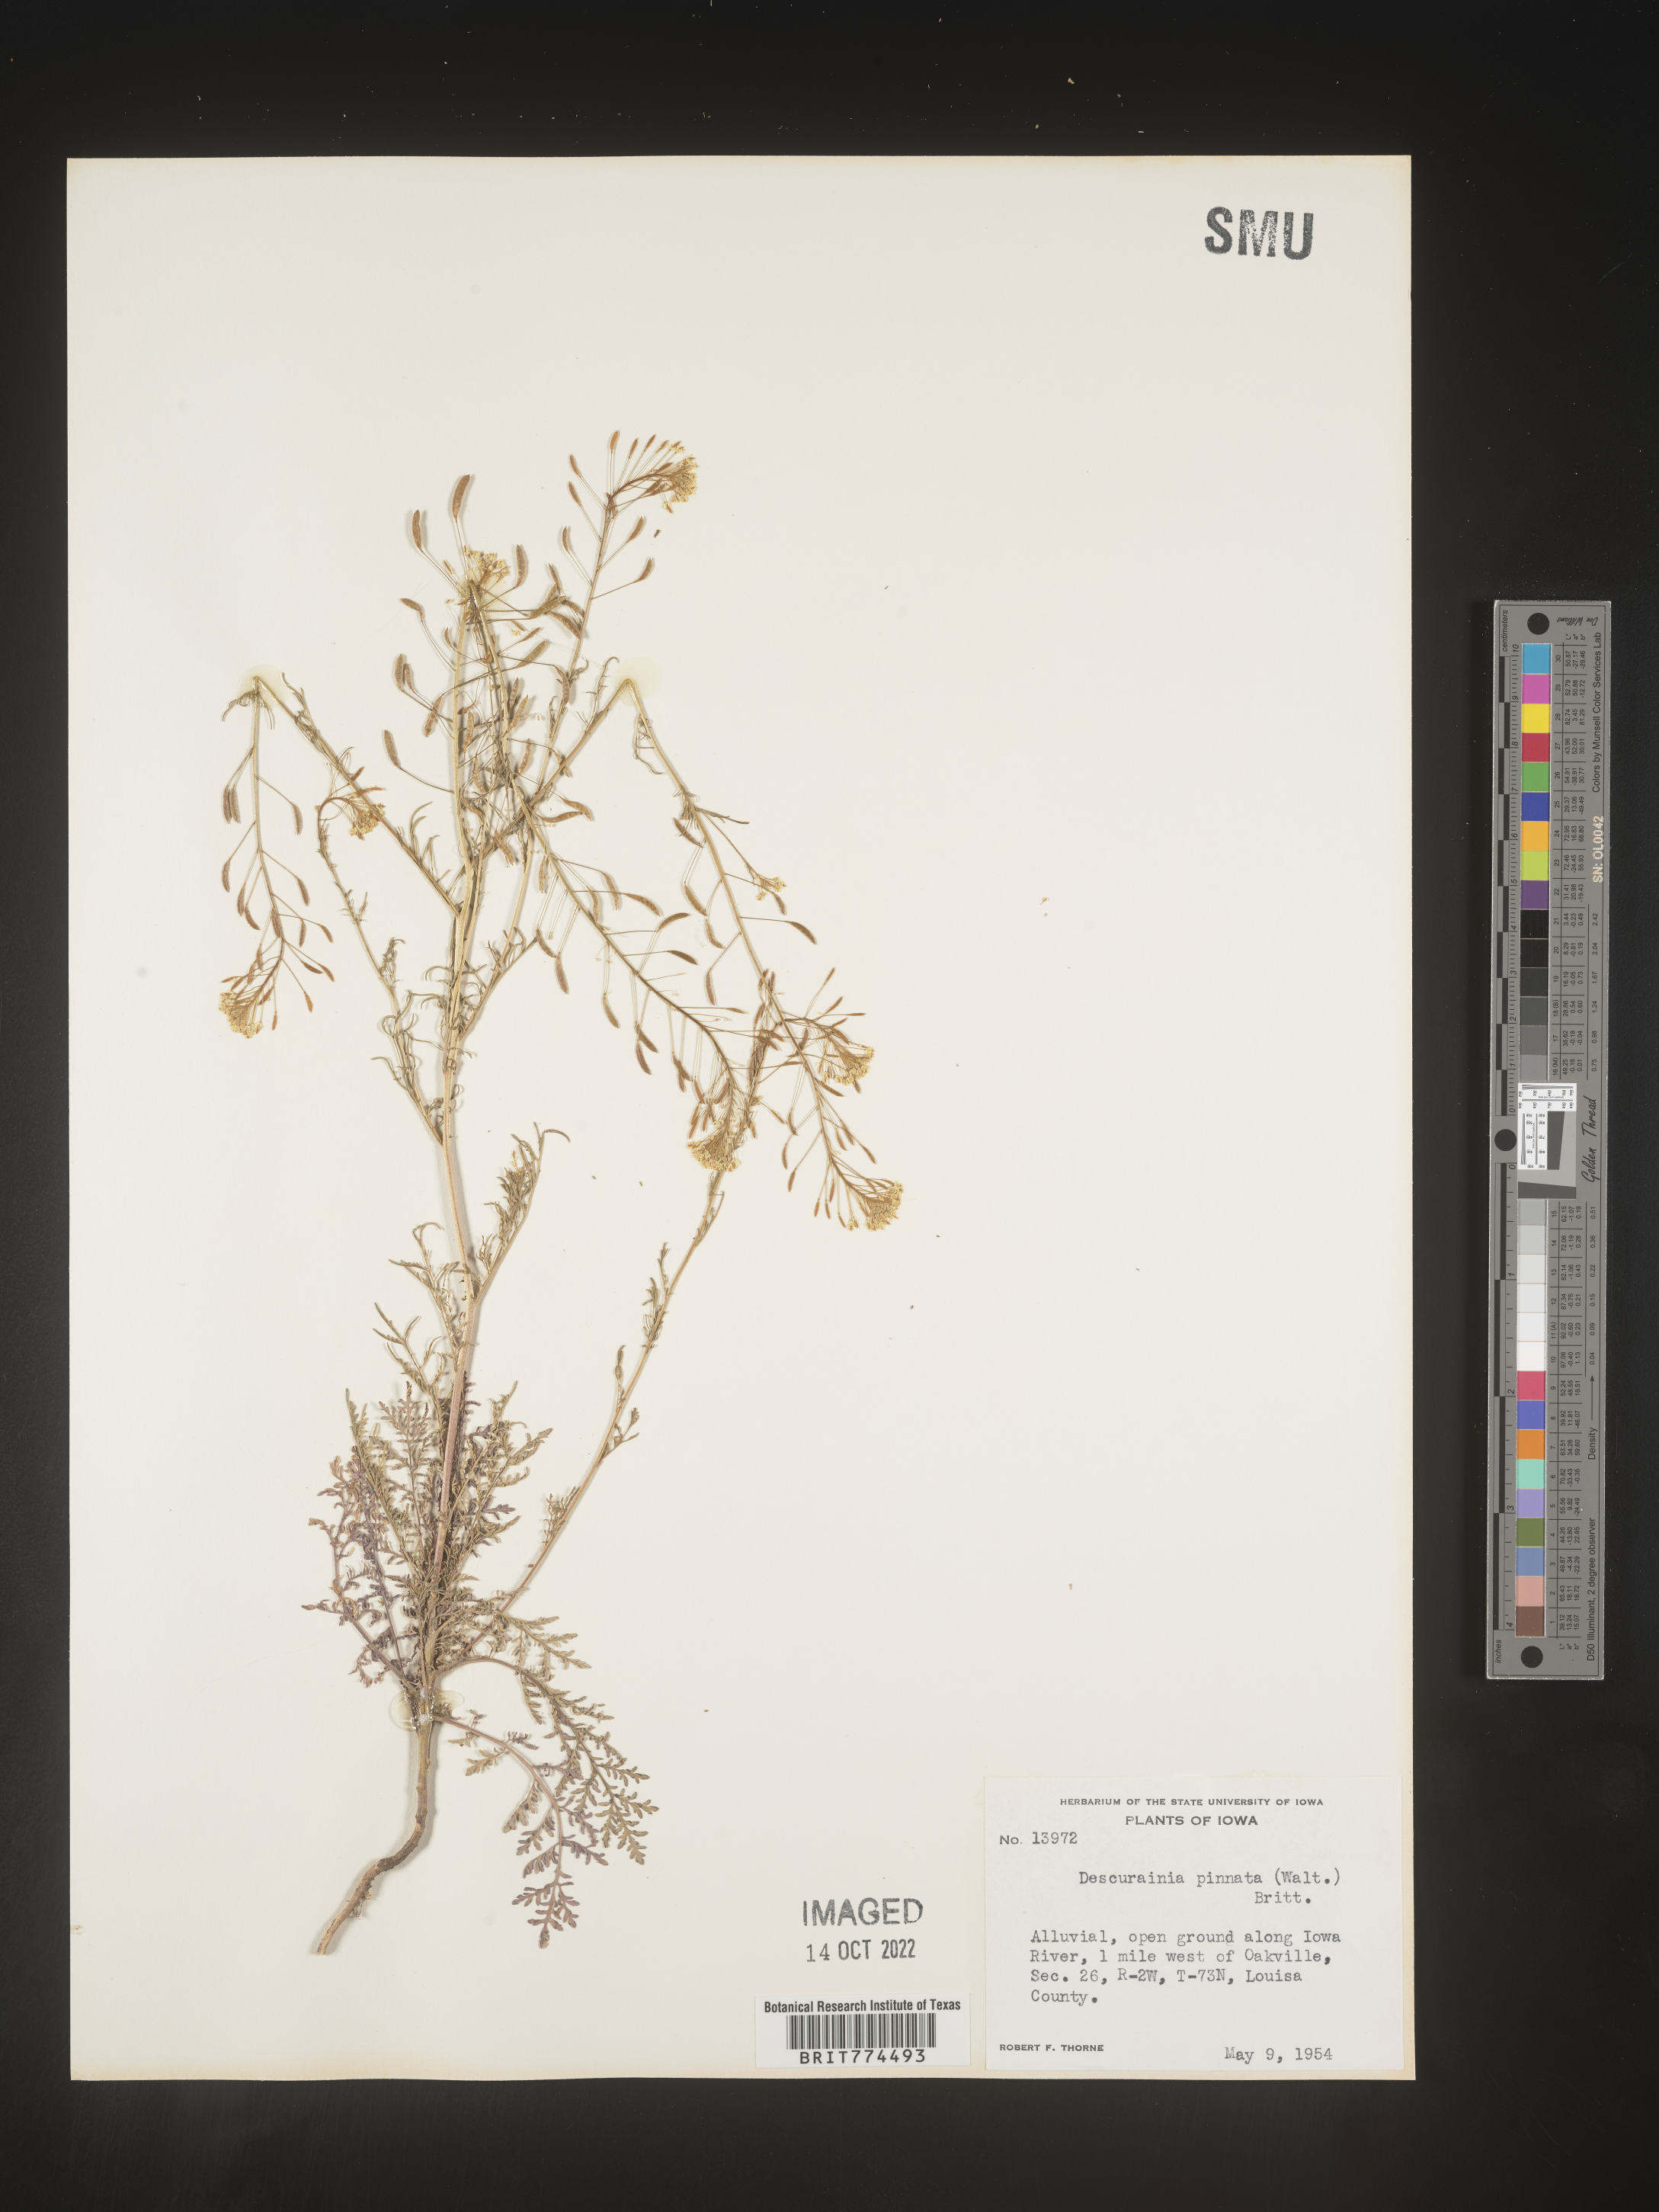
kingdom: Plantae
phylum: Tracheophyta
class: Magnoliopsida
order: Brassicales
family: Brassicaceae
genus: Descurainia
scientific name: Descurainia pinnata
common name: Western tansy mustard
